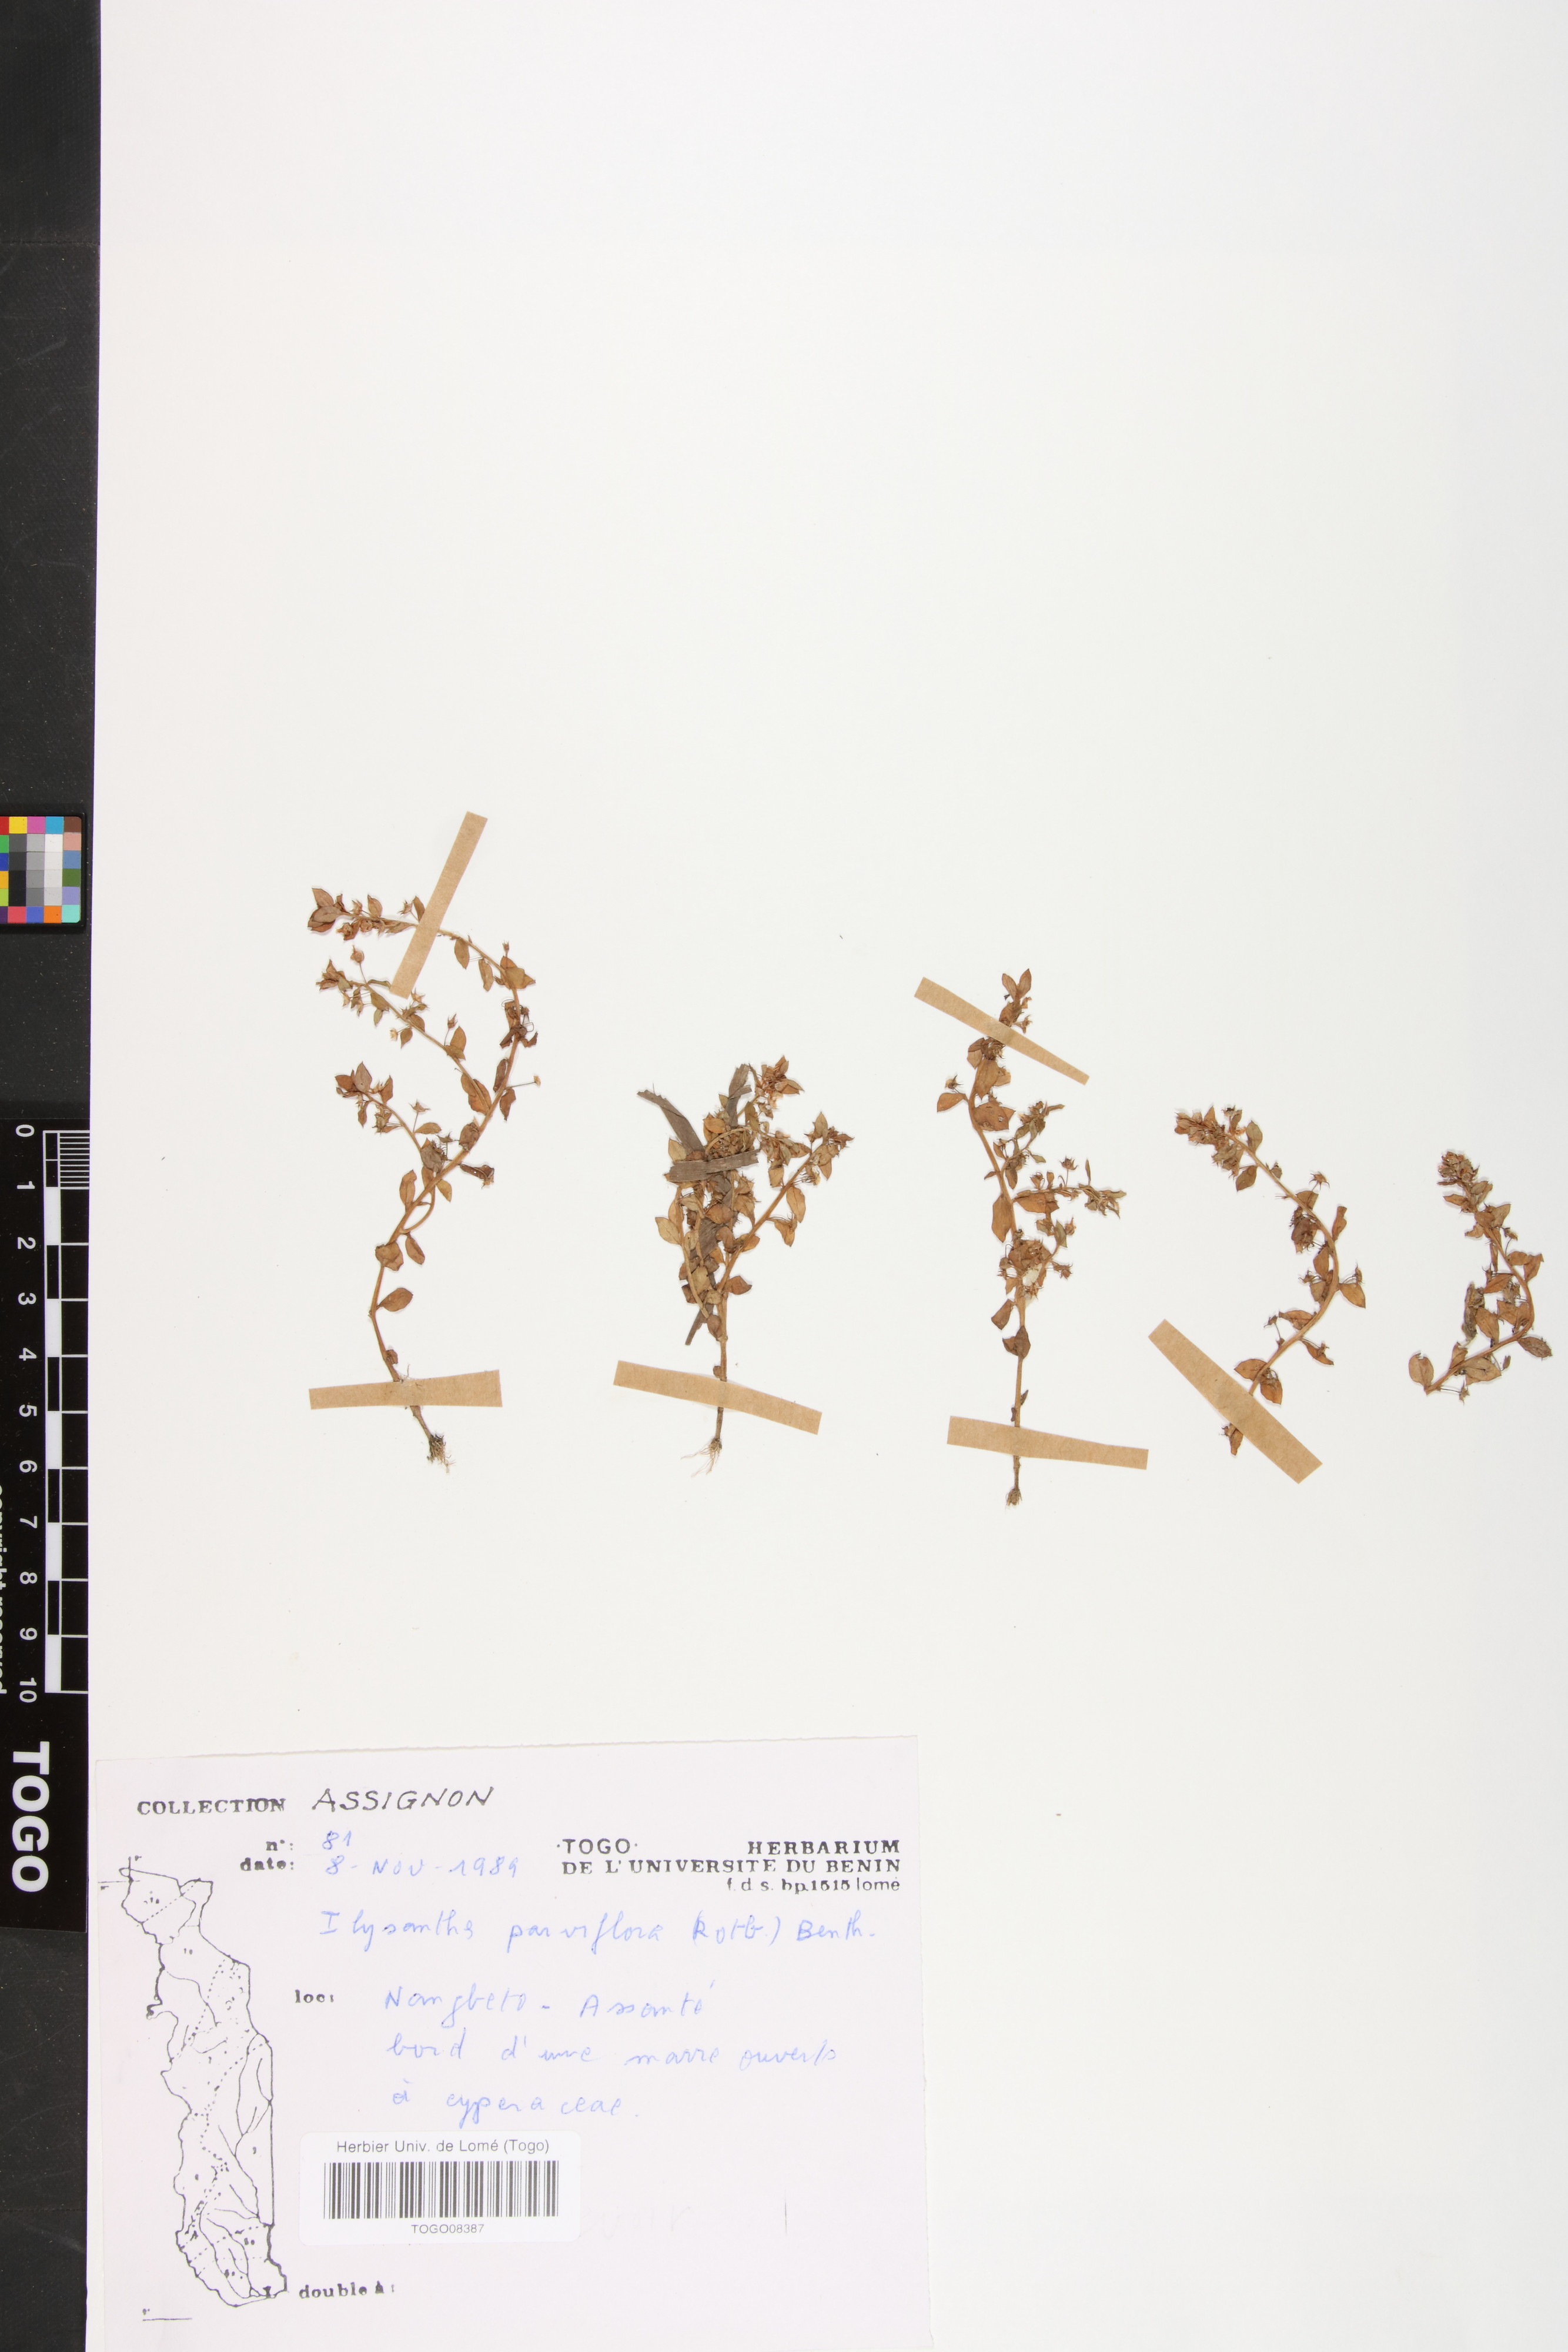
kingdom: Plantae
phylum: Tracheophyta
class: Magnoliopsida
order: Lamiales
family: Linderniaceae
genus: Lindernia
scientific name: Lindernia parviflora
